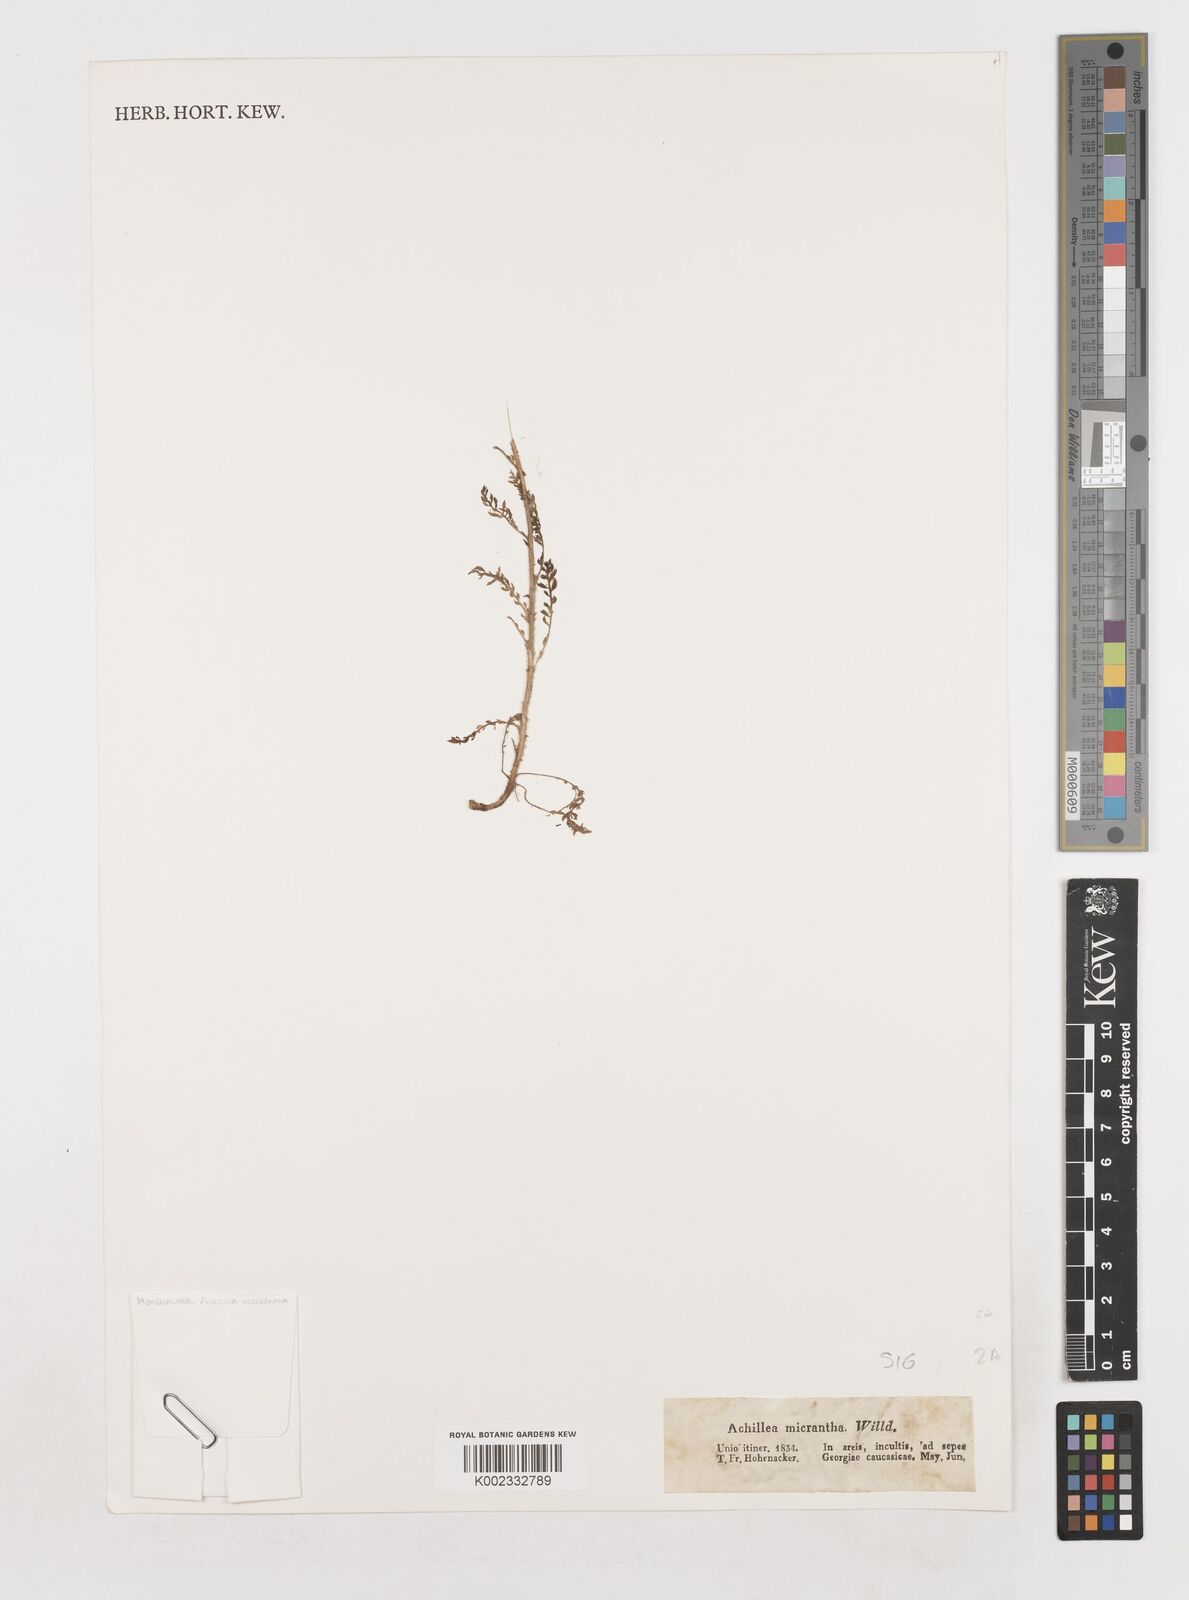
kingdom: Plantae
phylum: Tracheophyta
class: Magnoliopsida
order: Asterales
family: Asteraceae
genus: Achillea
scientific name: Achillea arabica
